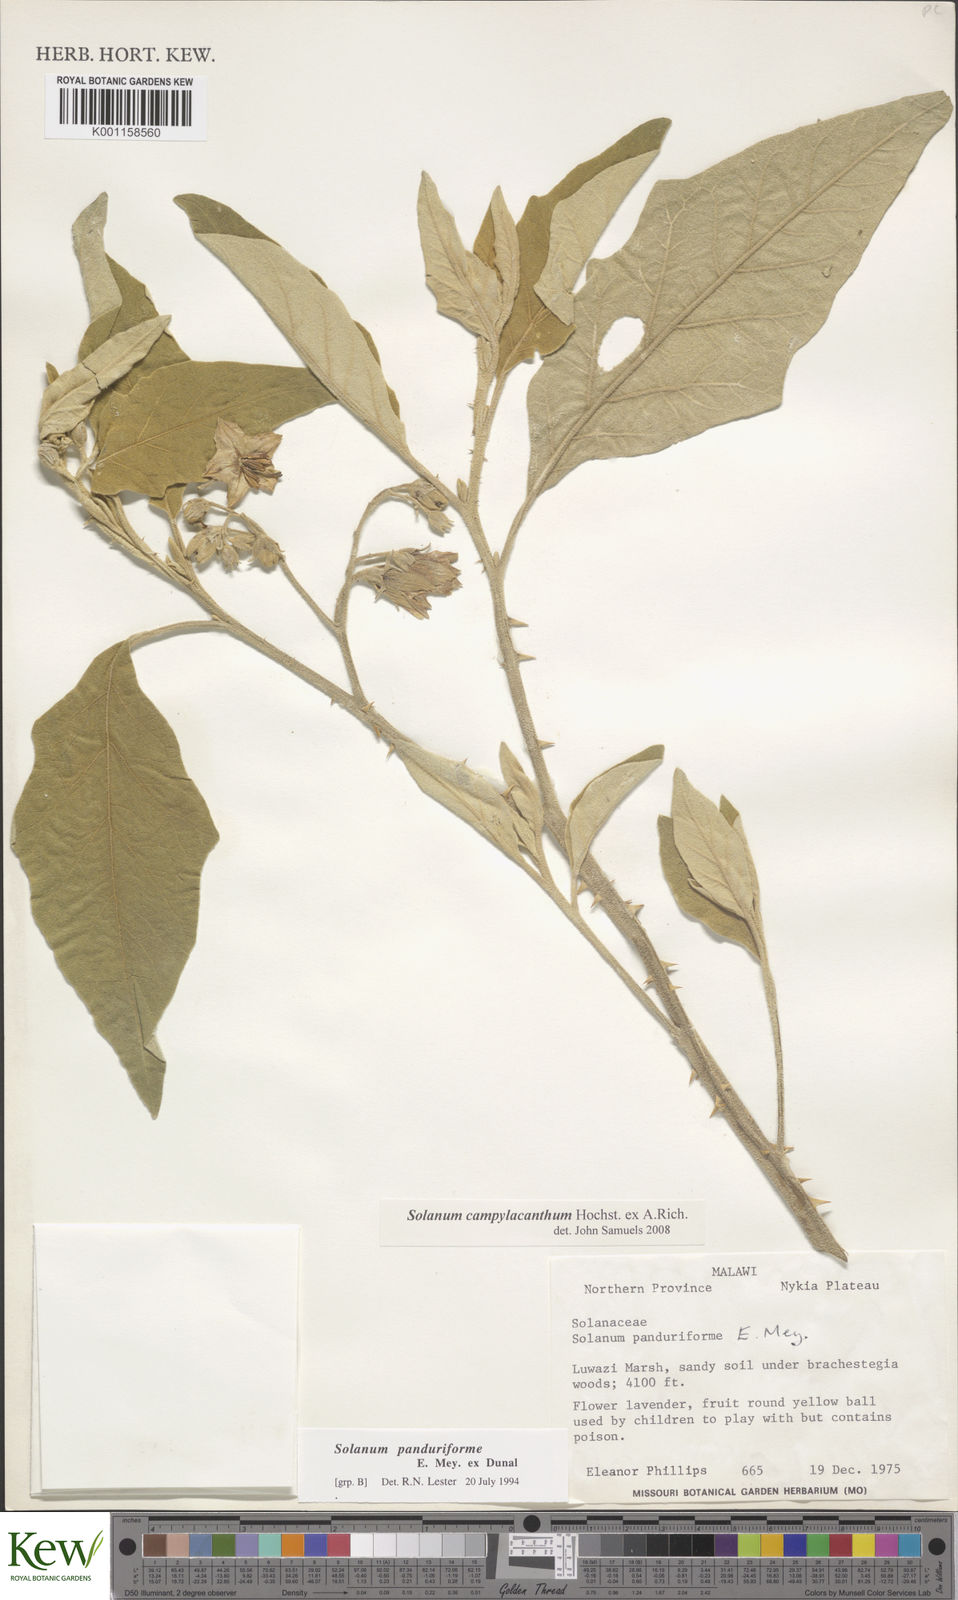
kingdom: Plantae
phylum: Tracheophyta
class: Magnoliopsida
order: Solanales
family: Solanaceae
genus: Solanum
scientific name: Solanum campylacanthum
